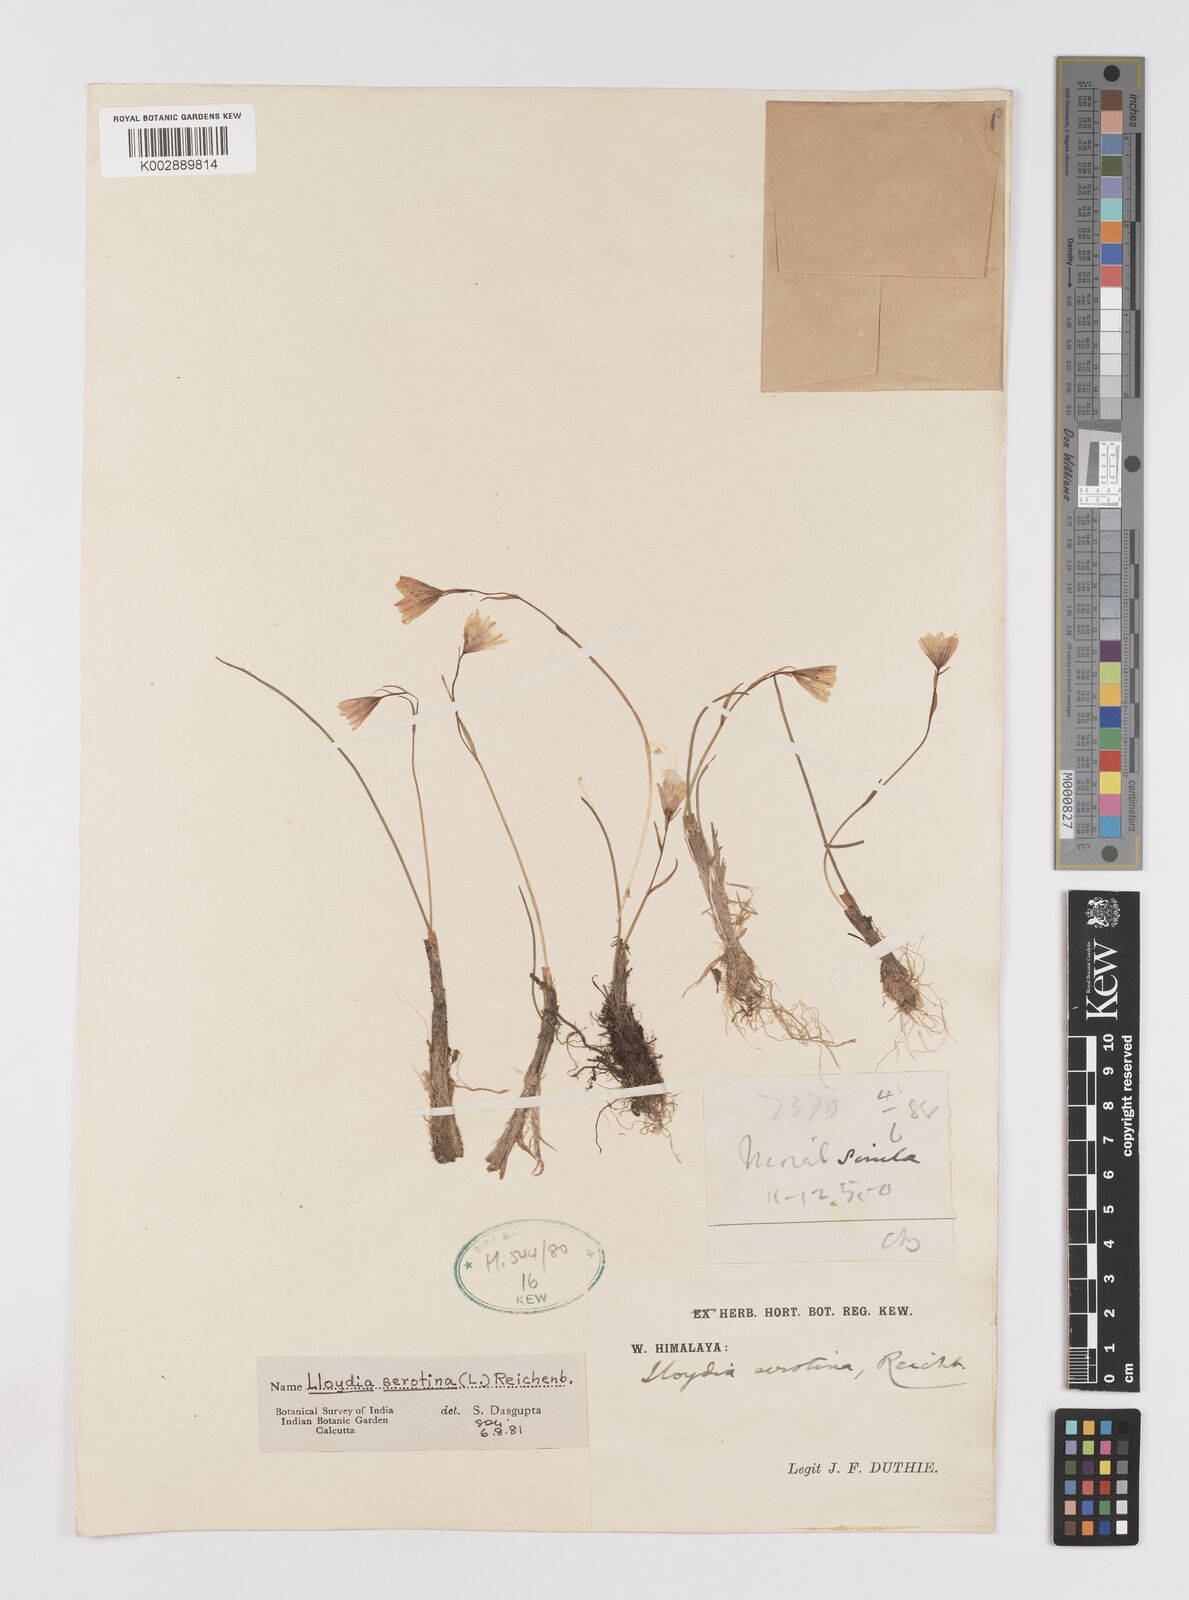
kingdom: Plantae
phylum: Tracheophyta
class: Liliopsida
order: Liliales
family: Liliaceae
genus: Gagea
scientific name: Gagea serotina
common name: Snowdon lily
